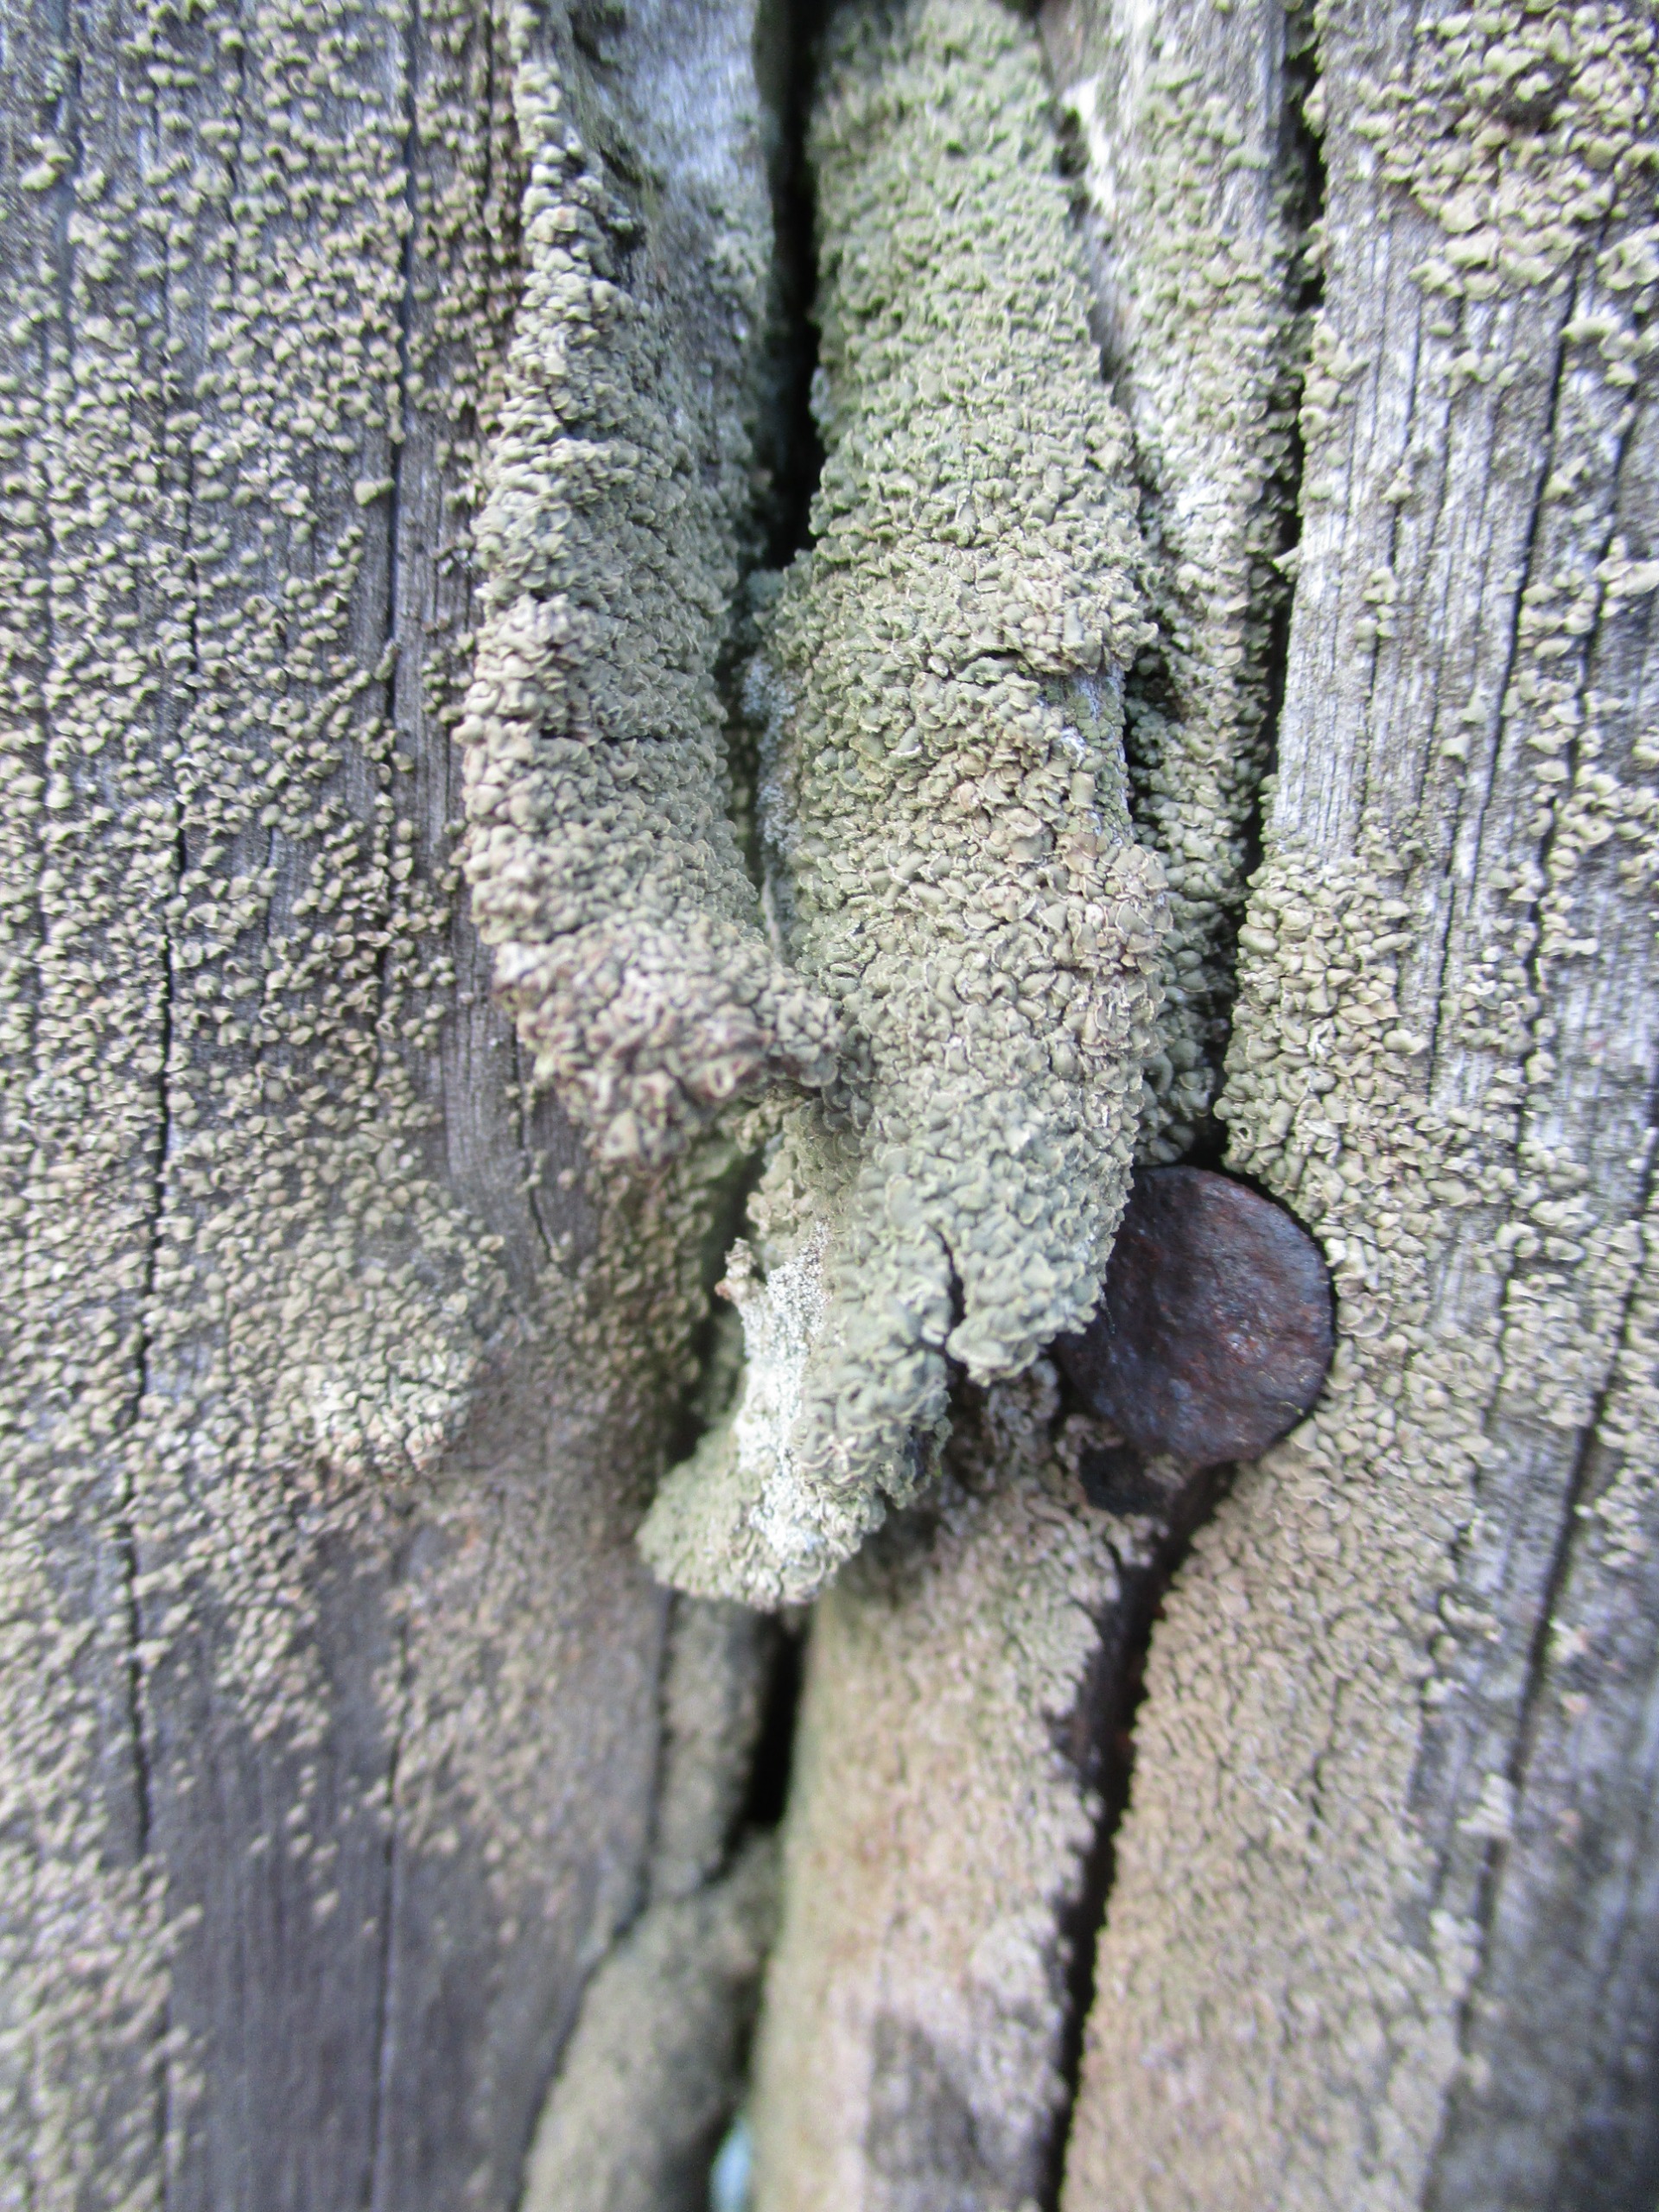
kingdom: Fungi
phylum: Ascomycota
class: Lecanoromycetes
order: Umbilicariales
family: Ophioparmaceae
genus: Hypocenomyce
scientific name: Hypocenomyce scalaris
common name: Småskællet muslinglav
